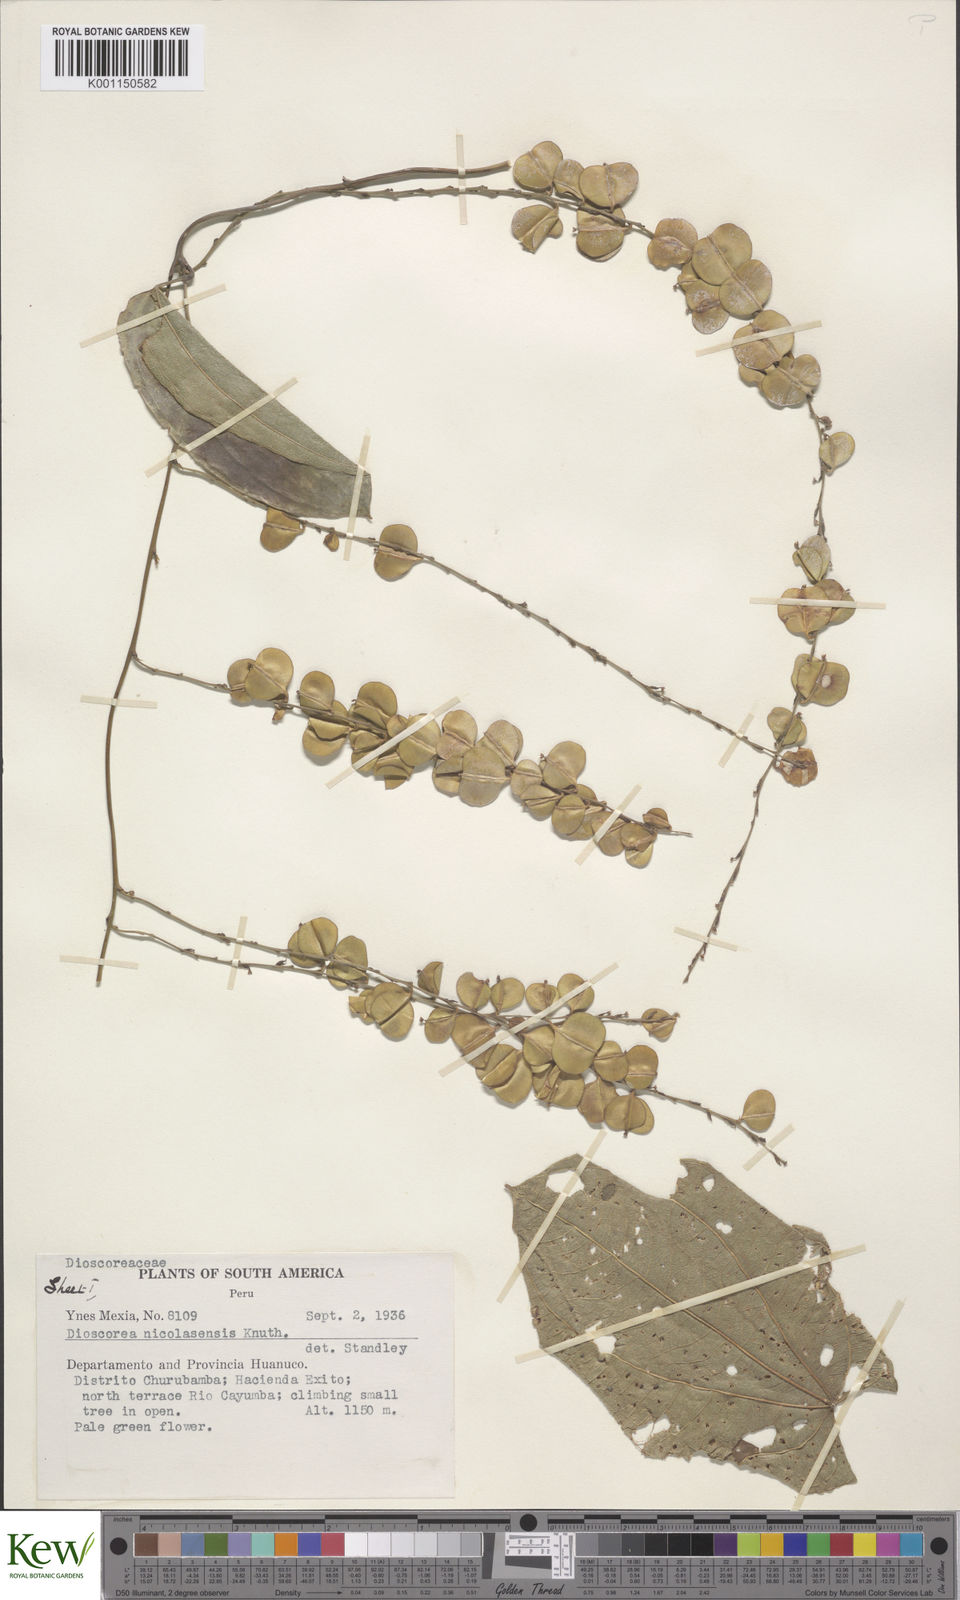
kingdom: Plantae
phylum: Tracheophyta
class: Liliopsida
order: Dioscoreales
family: Dioscoreaceae
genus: Dioscorea
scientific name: Dioscorea nicolasensis
